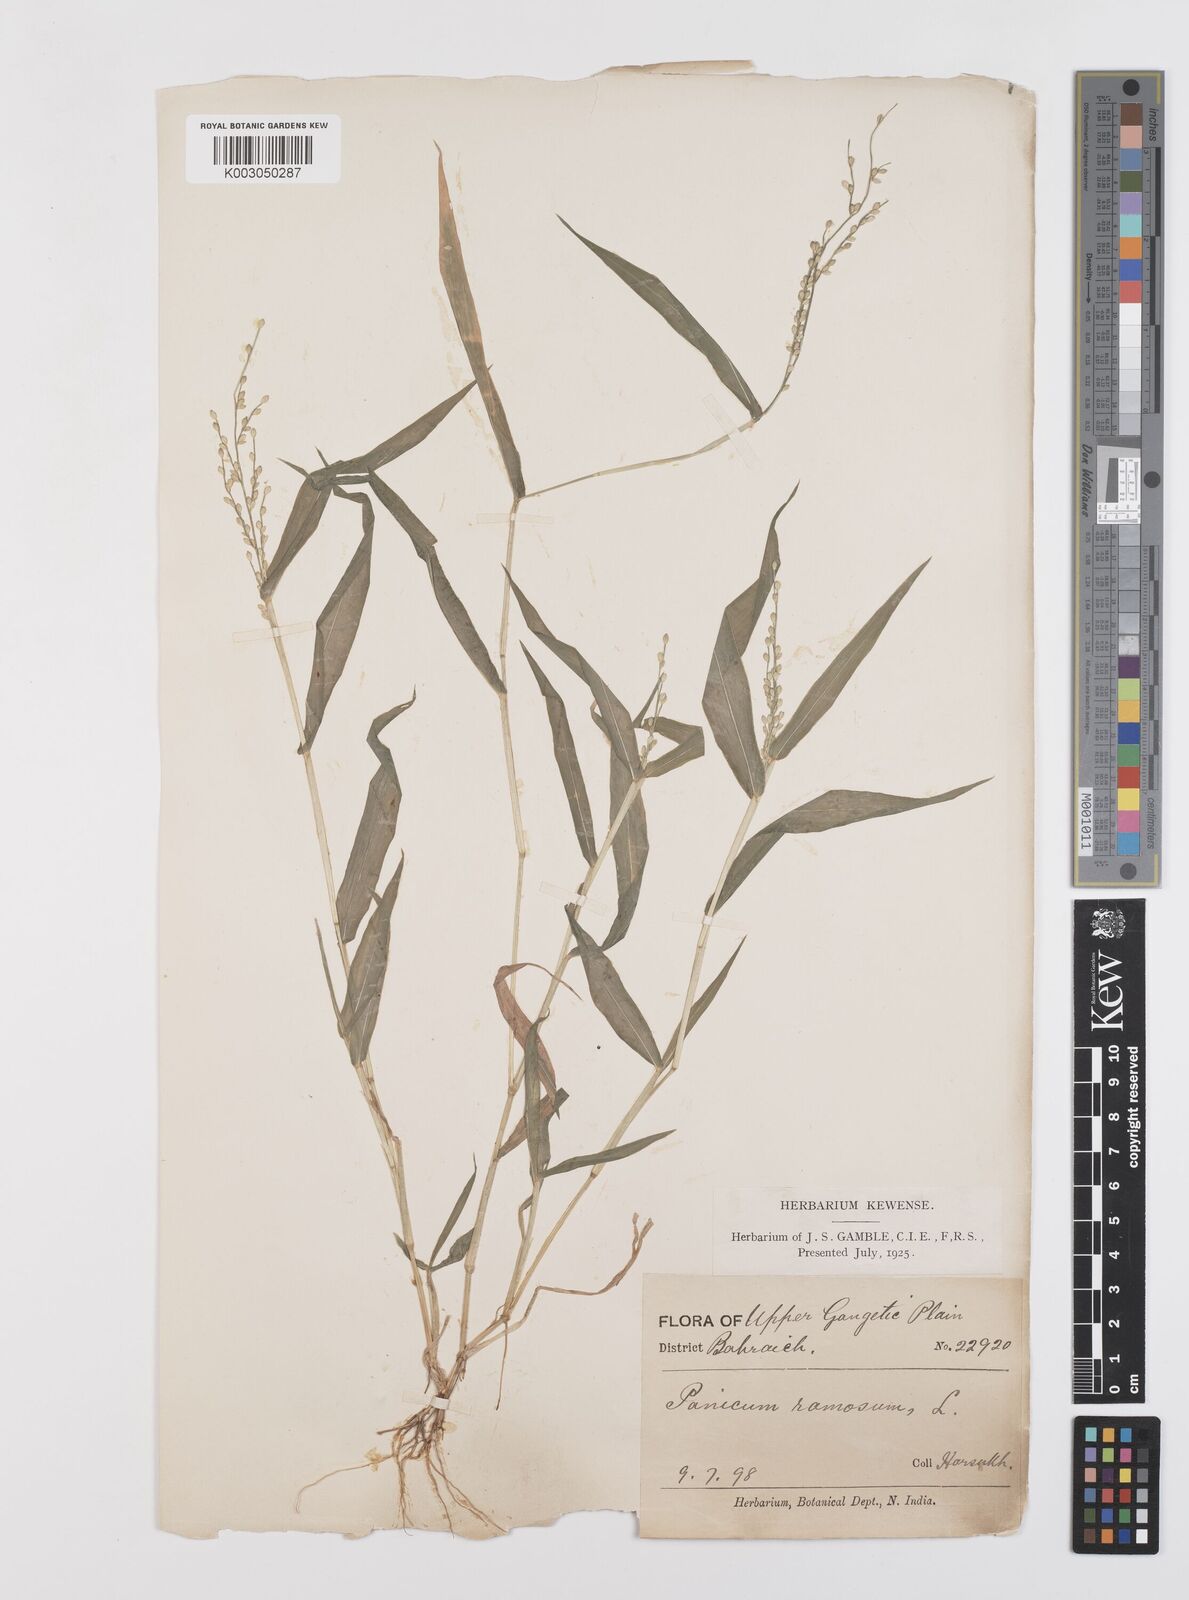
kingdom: Plantae
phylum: Tracheophyta
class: Liliopsida
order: Poales
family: Poaceae
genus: Urochloa
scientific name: Urochloa ramosa
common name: Browntop millet
